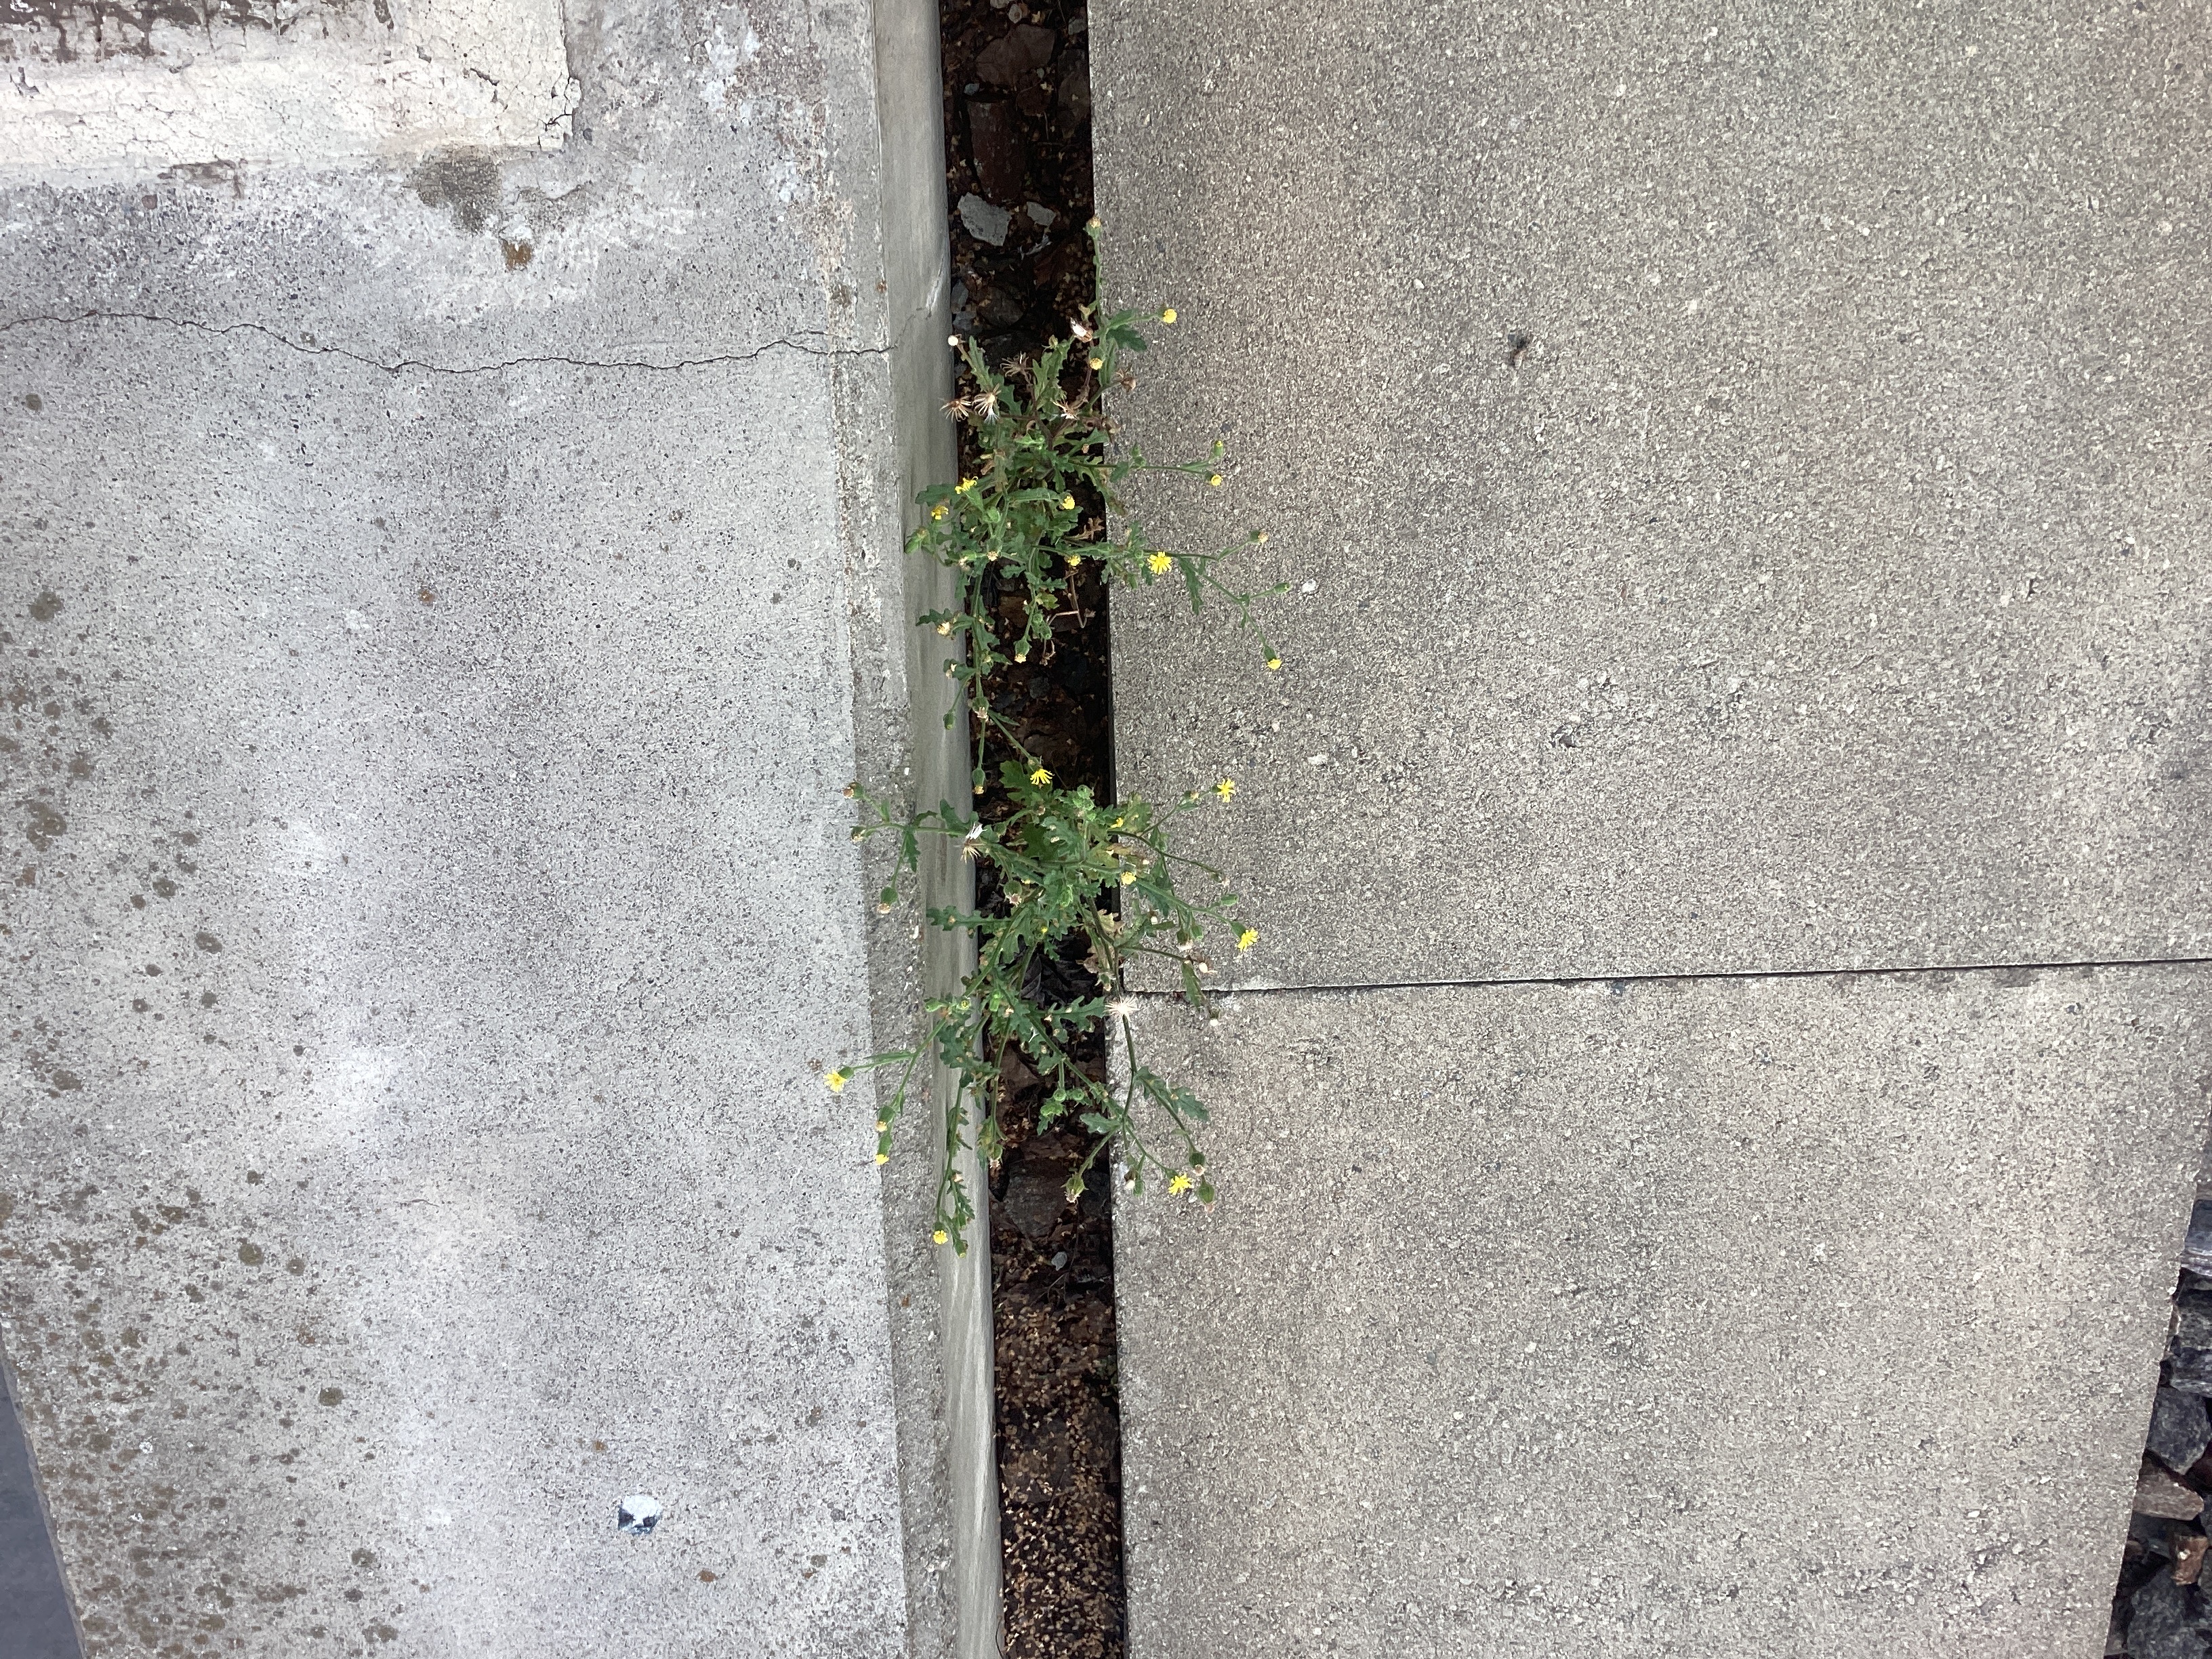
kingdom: Plantae
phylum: Tracheophyta
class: Magnoliopsida
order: Asterales
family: Asteraceae
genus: Senecio
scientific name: Senecio viscosus
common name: klistersvineblom
